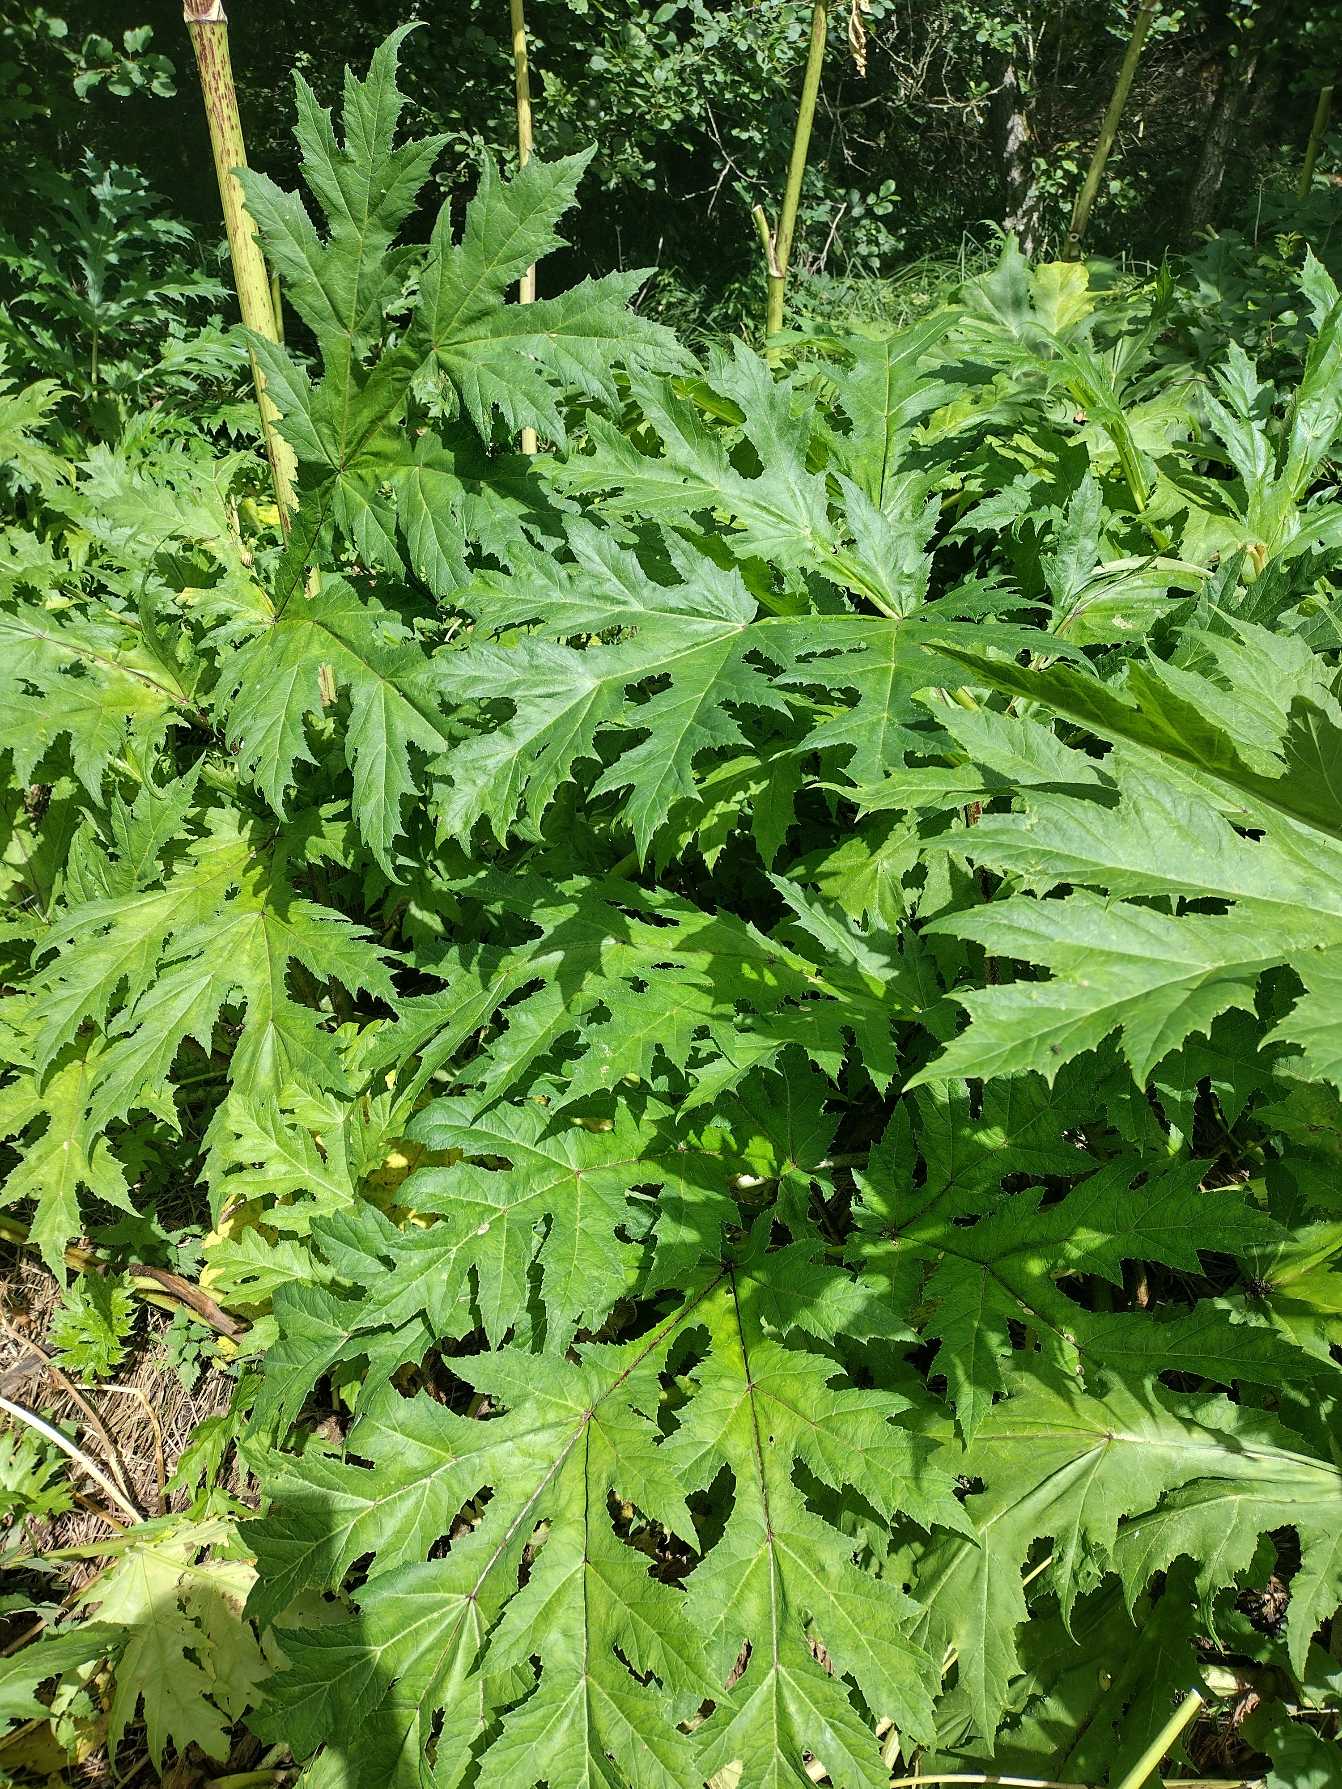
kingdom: Plantae
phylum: Tracheophyta
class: Magnoliopsida
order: Apiales
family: Apiaceae
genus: Heracleum
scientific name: Heracleum mantegazzianum
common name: Kæmpe-bjørneklo
